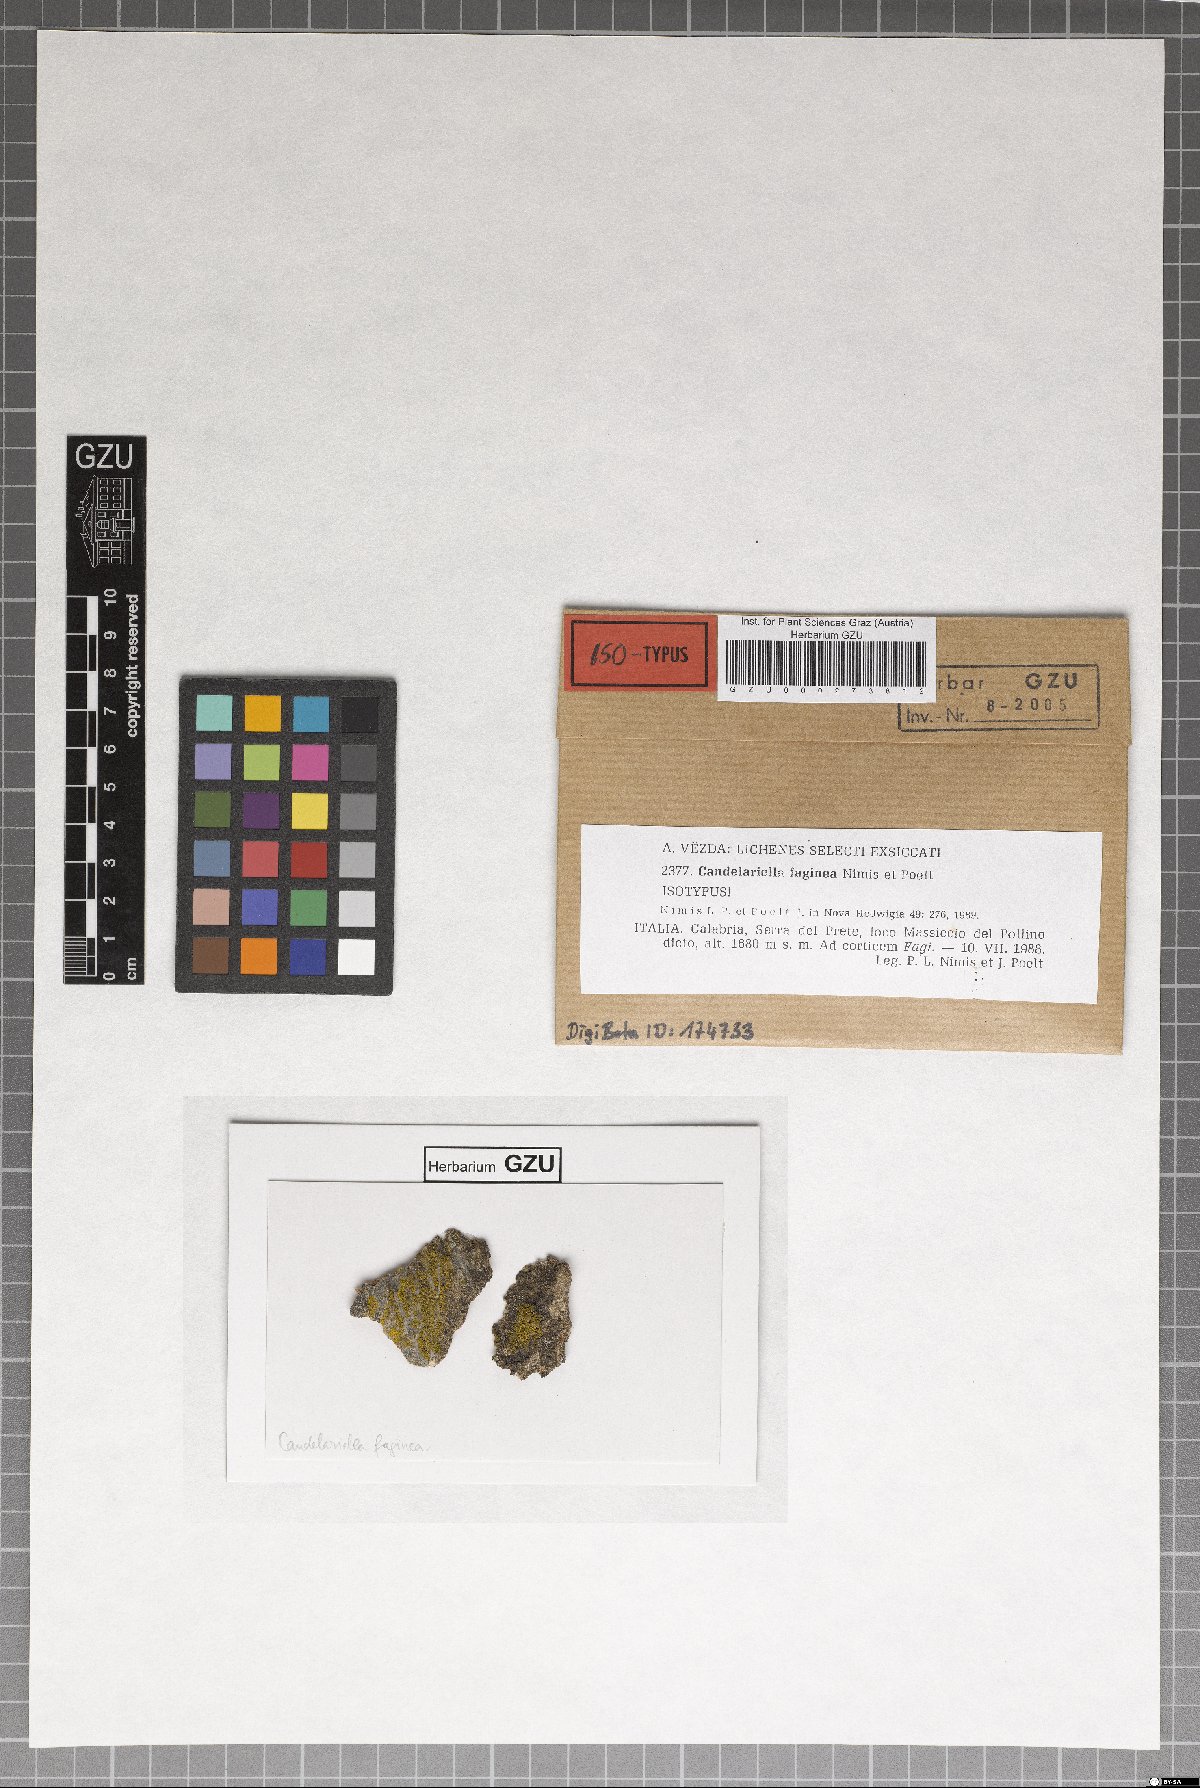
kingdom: Fungi
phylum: Ascomycota
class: Candelariomycetes
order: Candelariales
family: Candelariaceae
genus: Candelariella
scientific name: Candelariella faginea
